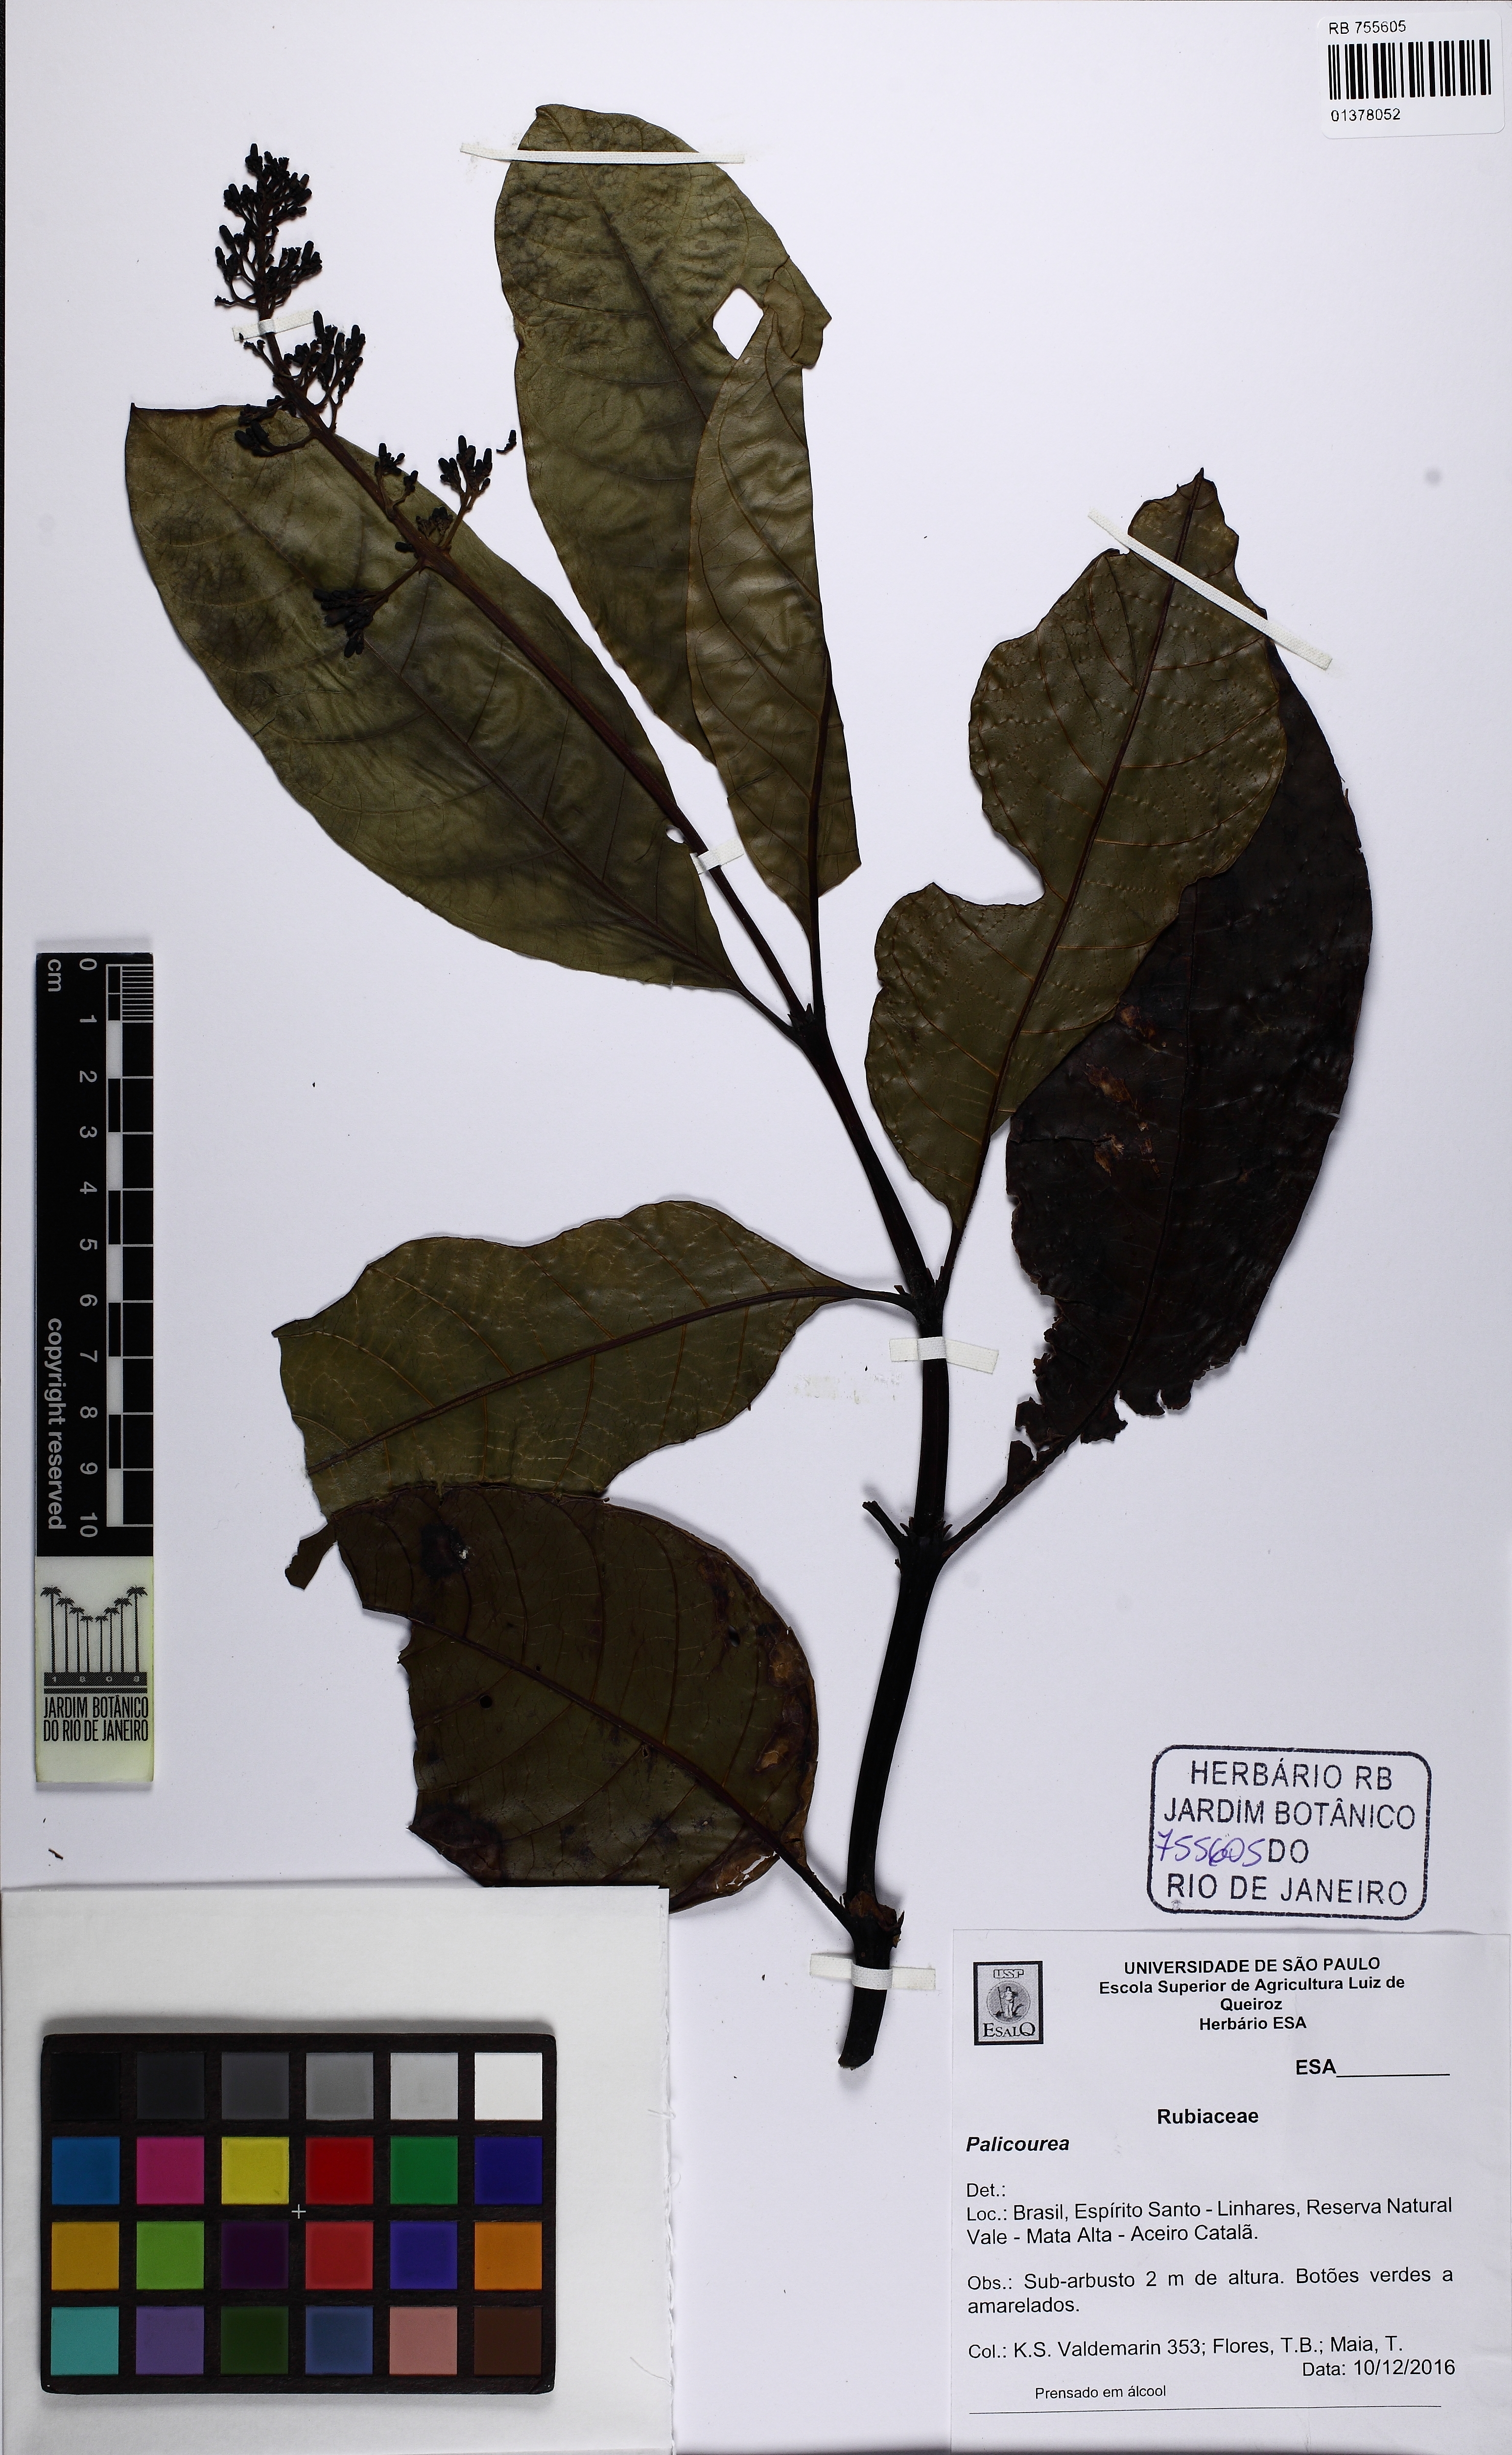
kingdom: Plantae
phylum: Tracheophyta
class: Magnoliopsida
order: Gentianales
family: Rubiaceae
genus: Palicourea
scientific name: Palicourea
